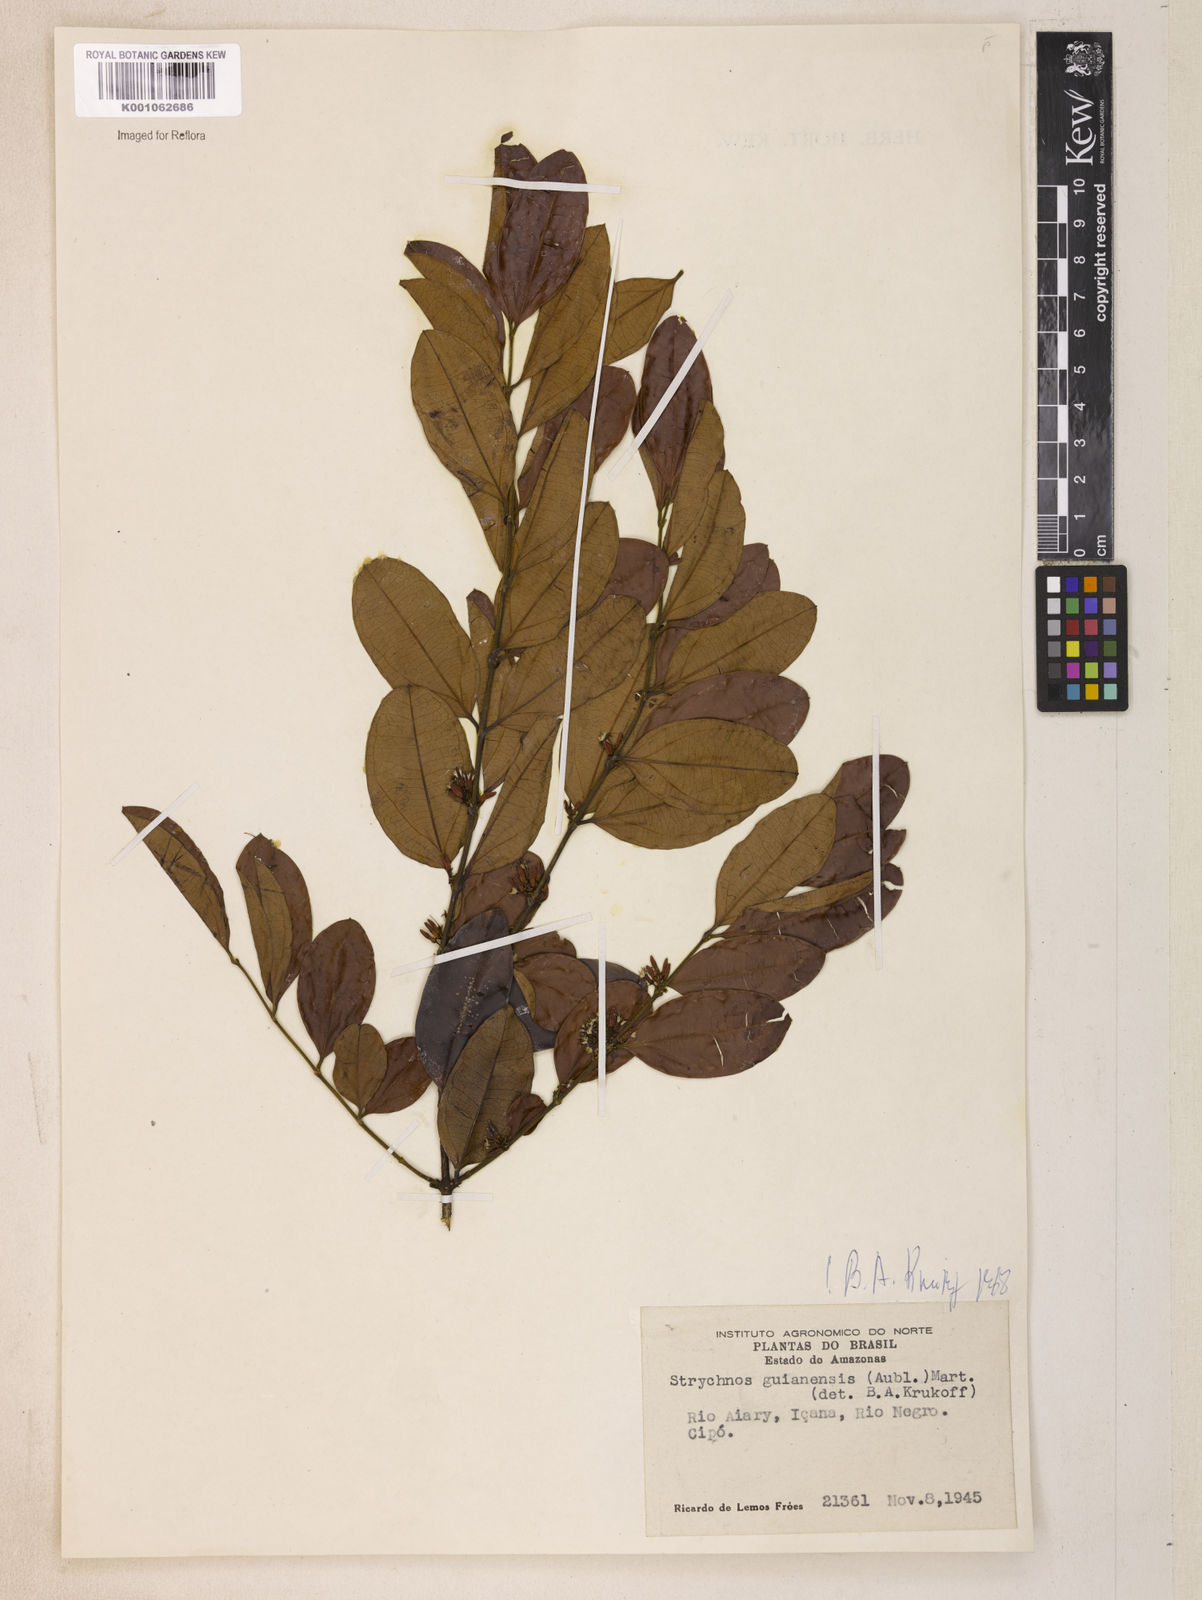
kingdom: Plantae
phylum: Tracheophyta
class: Magnoliopsida
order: Gentianales
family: Loganiaceae
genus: Strychnos
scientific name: Strychnos guianensis
